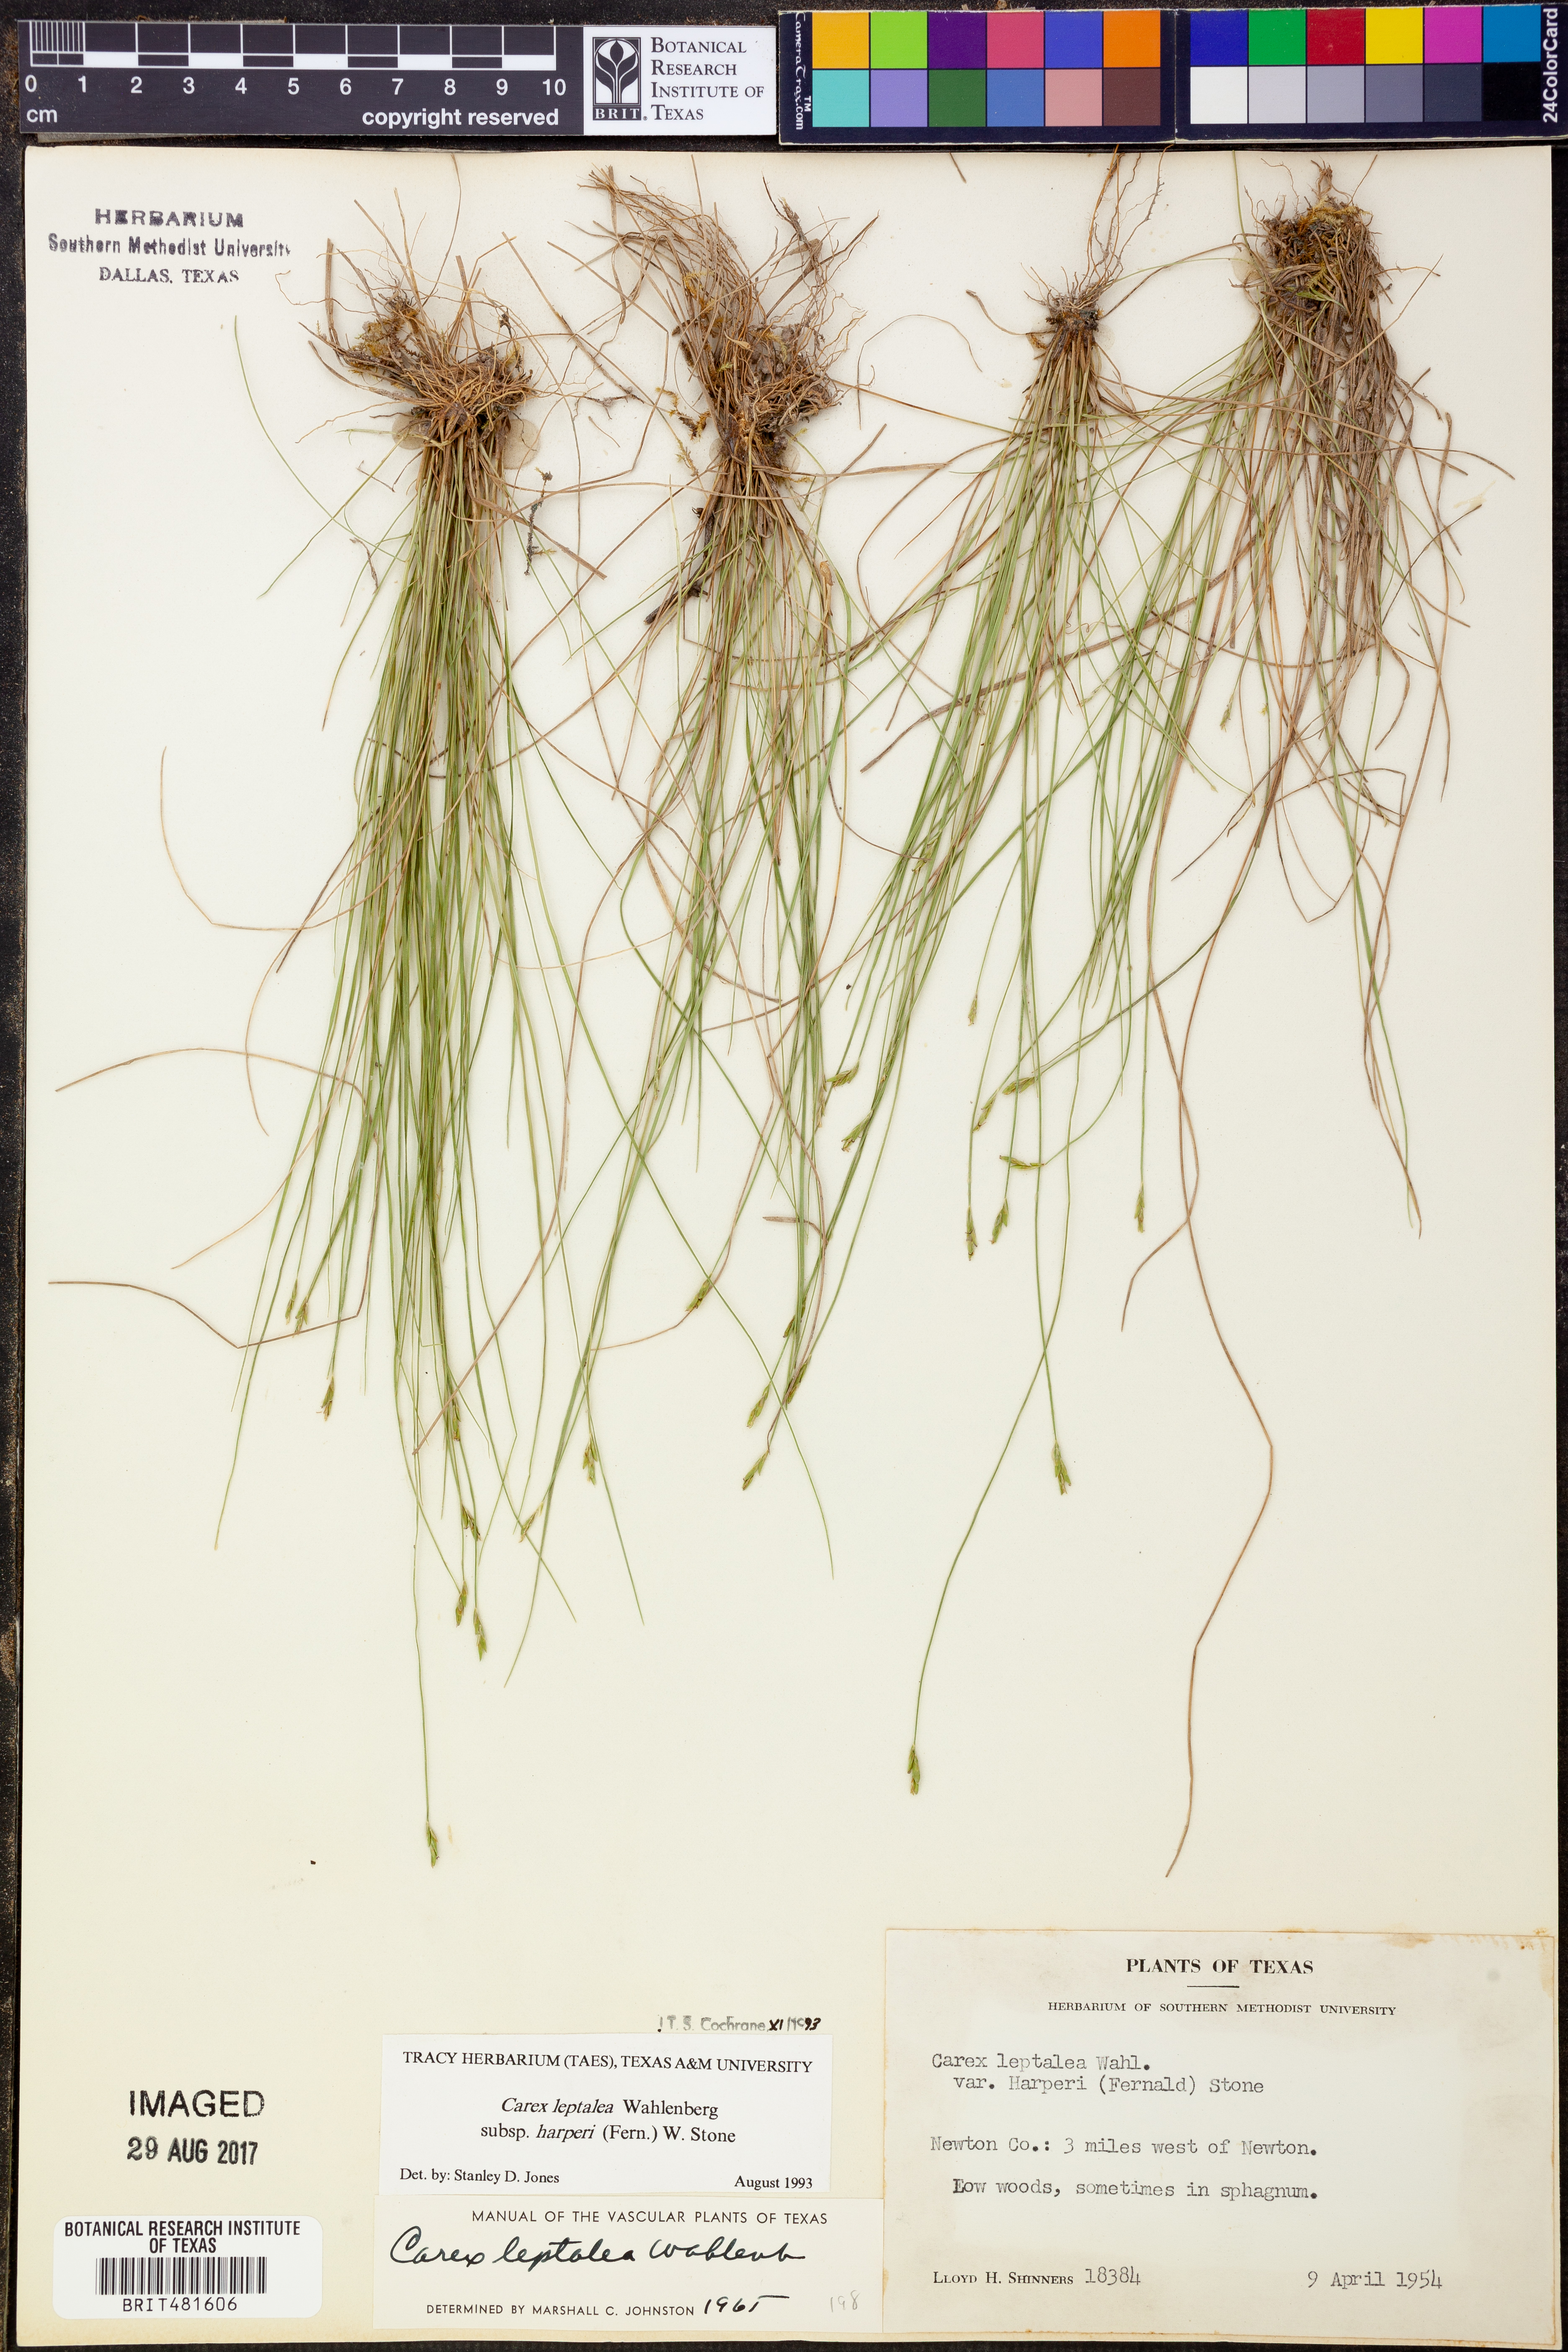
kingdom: Plantae
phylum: Tracheophyta
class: Liliopsida
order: Poales
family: Cyperaceae
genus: Carex
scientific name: Carex leptalea
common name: Bristly-stalked sedge
